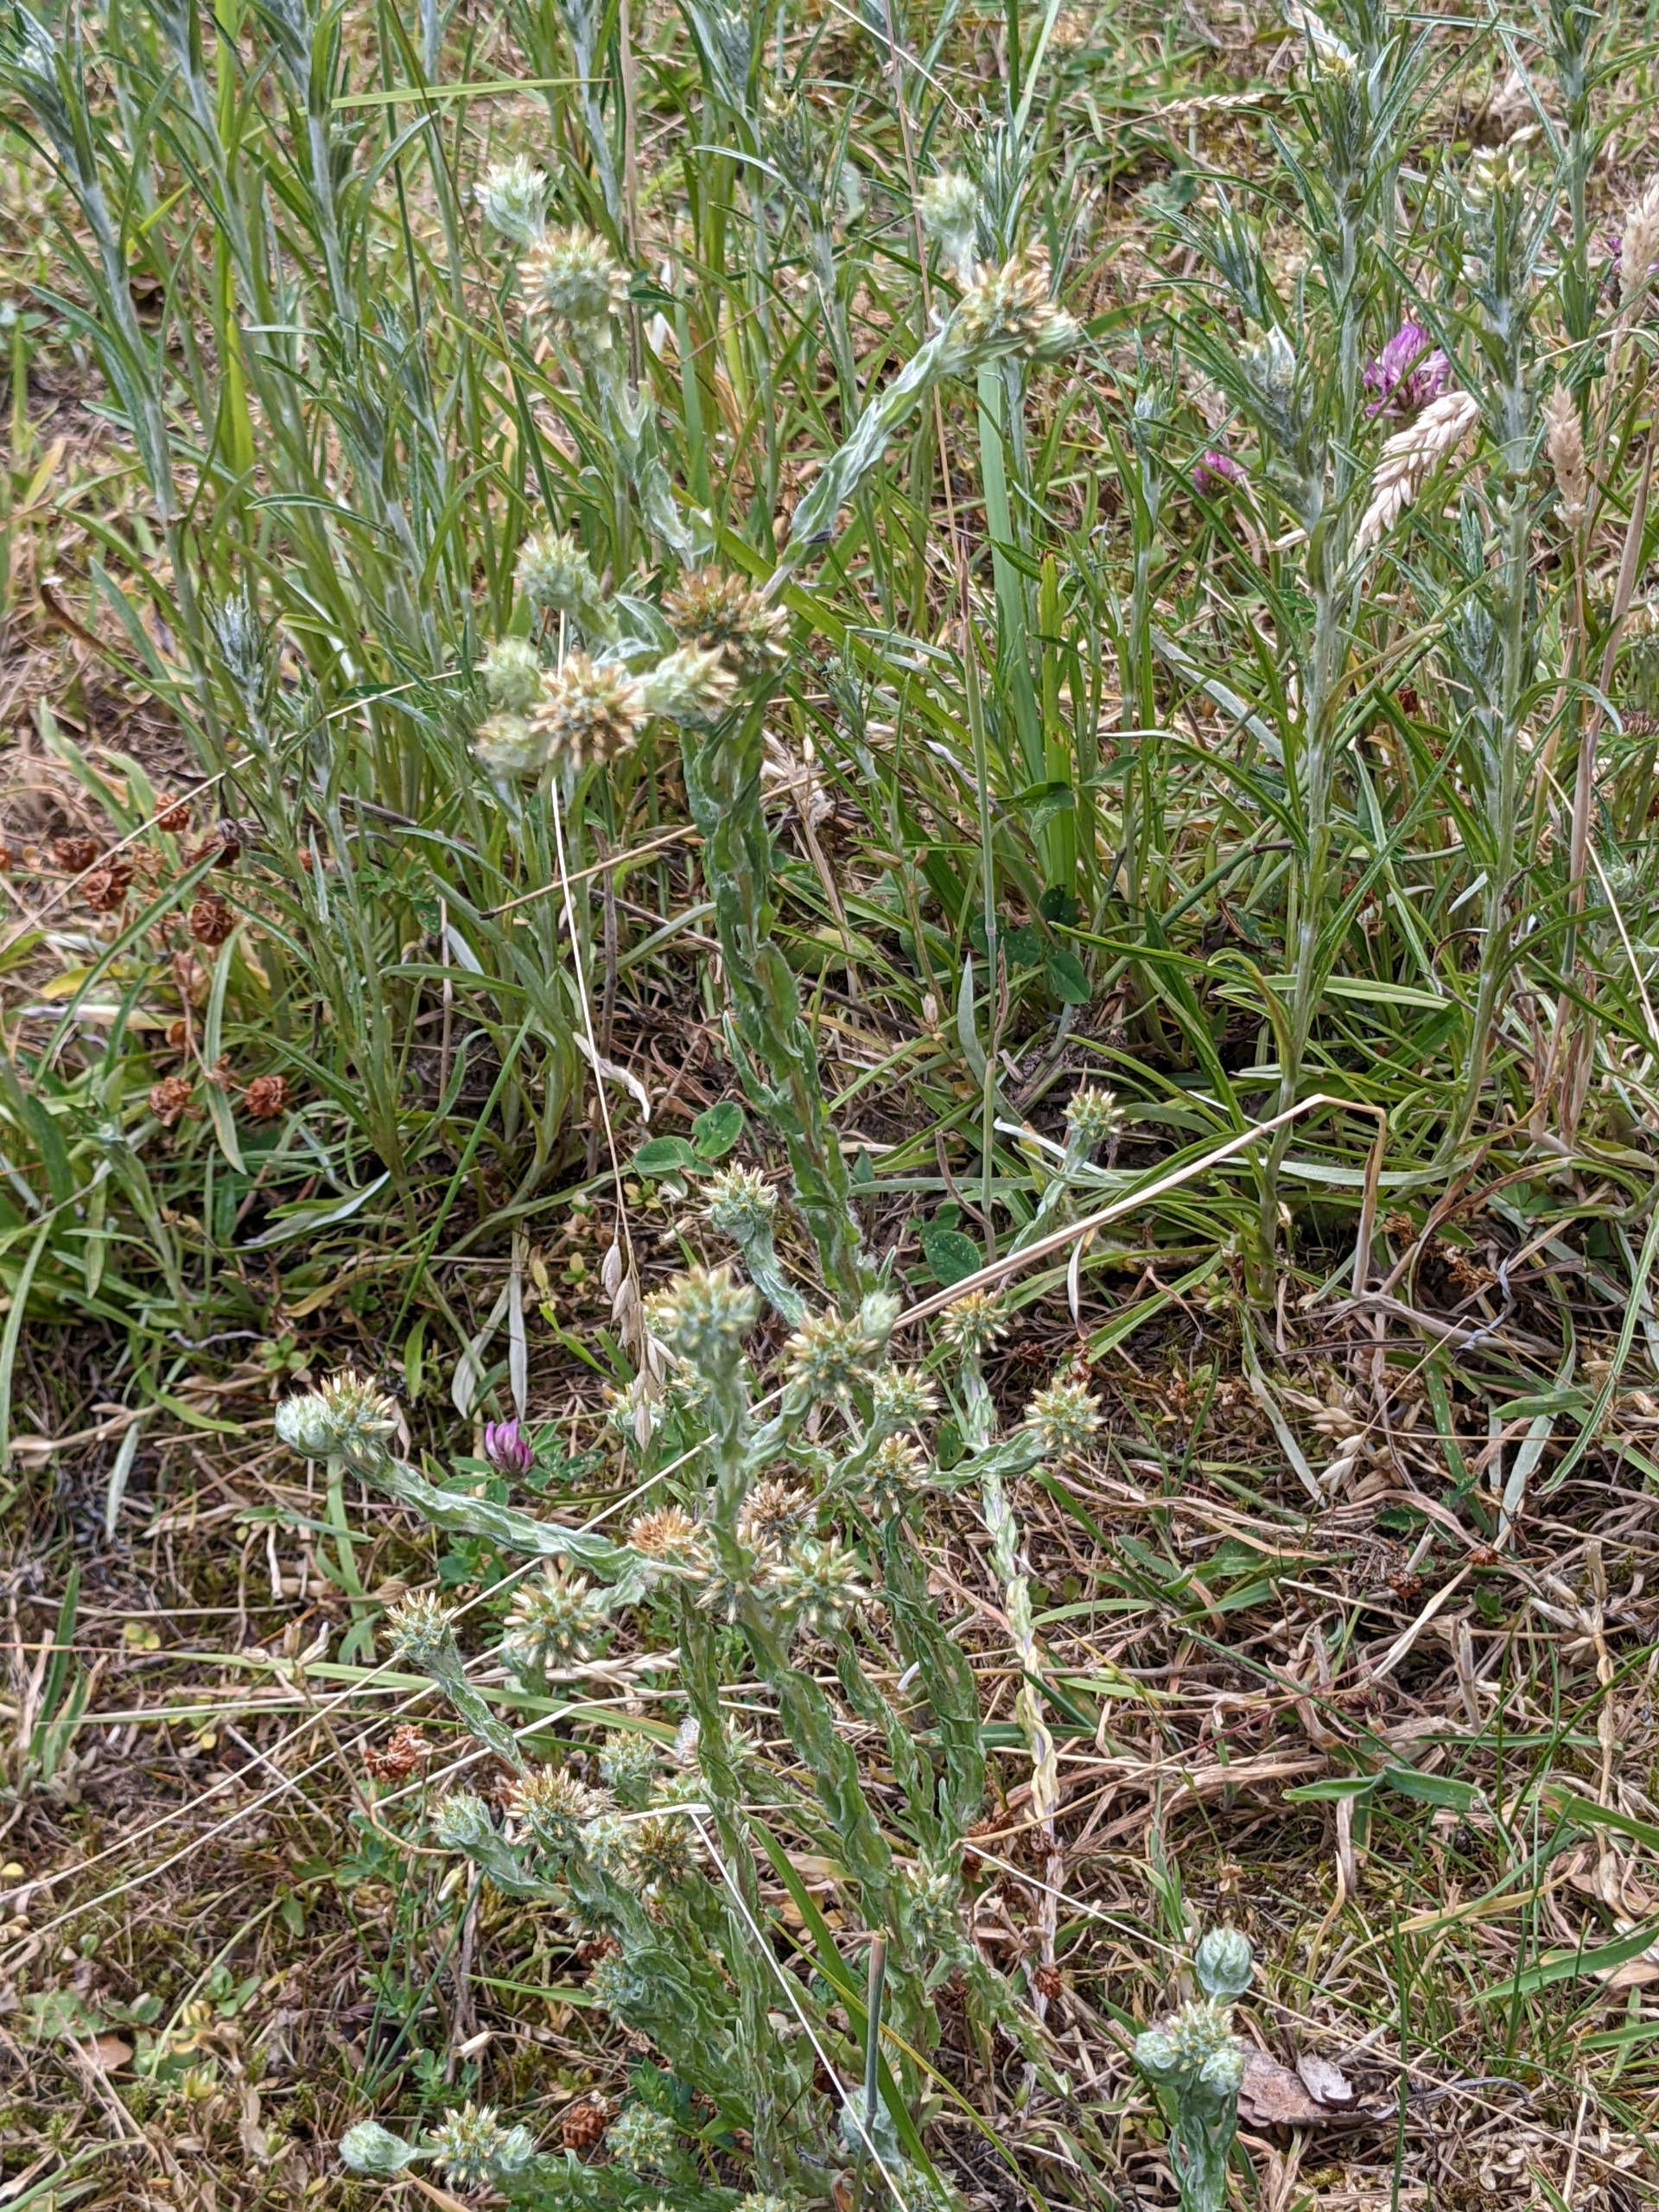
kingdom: Plantae
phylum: Tracheophyta
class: Magnoliopsida
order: Asterales
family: Asteraceae
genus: Filago
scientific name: Filago germanica
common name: Kugle-museurt
